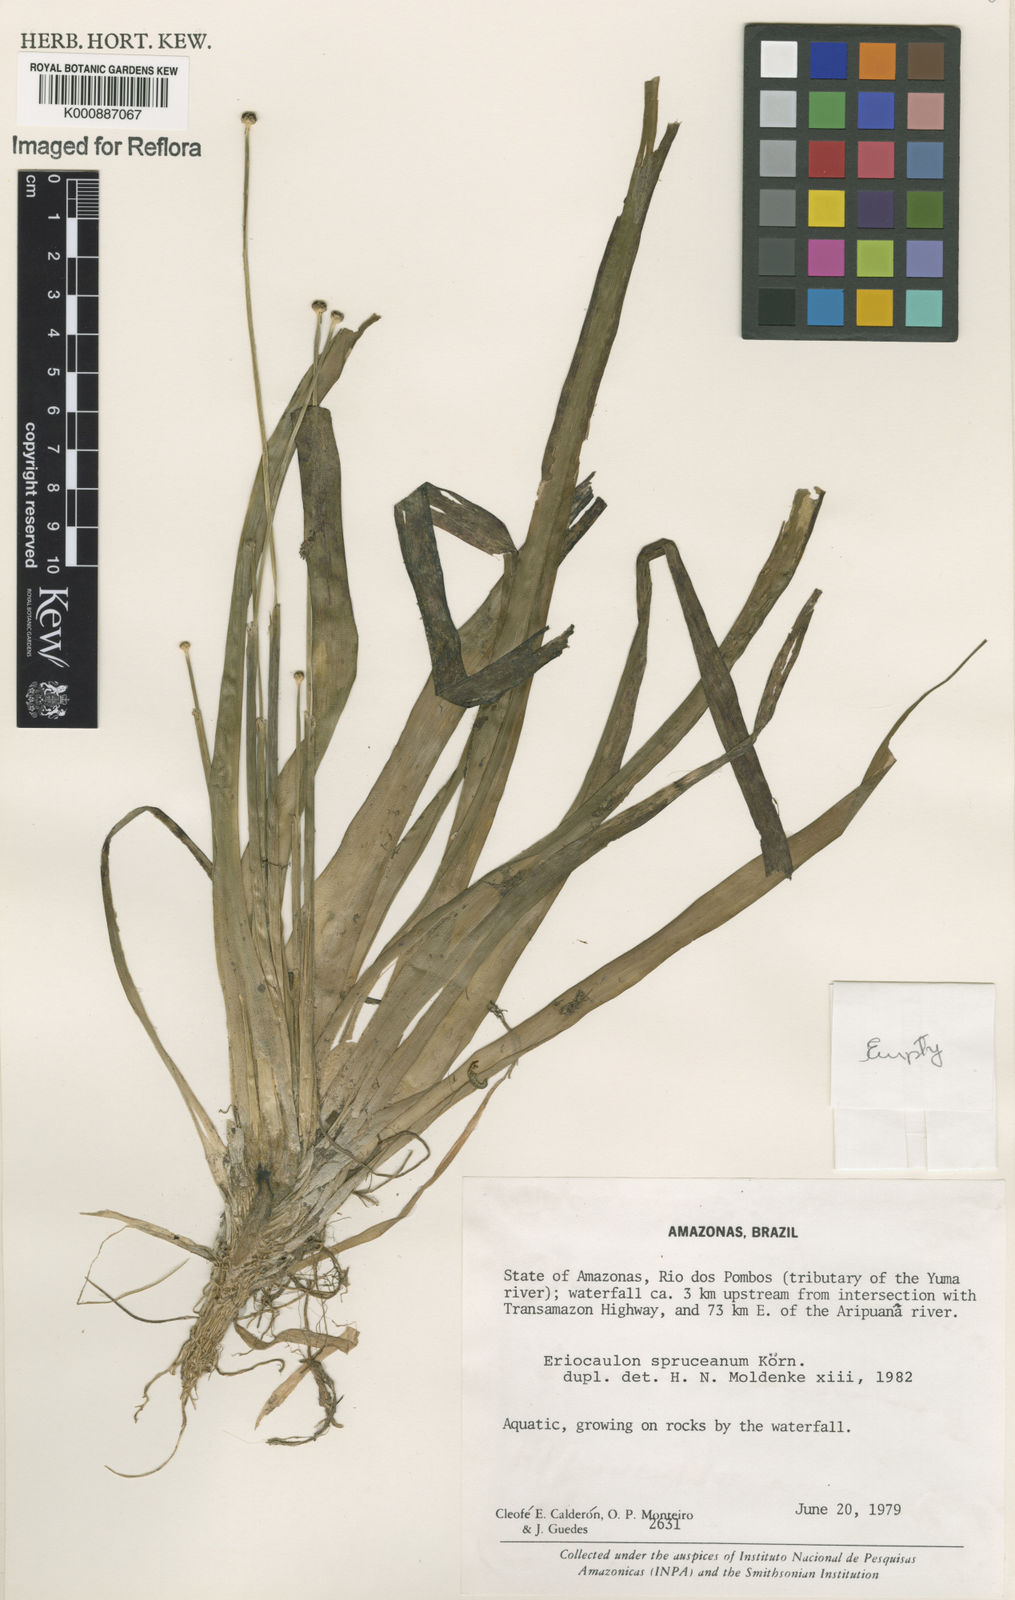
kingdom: Plantae
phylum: Tracheophyta
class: Liliopsida
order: Poales
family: Eriocaulaceae
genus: Eriocaulon
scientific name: Eriocaulon
